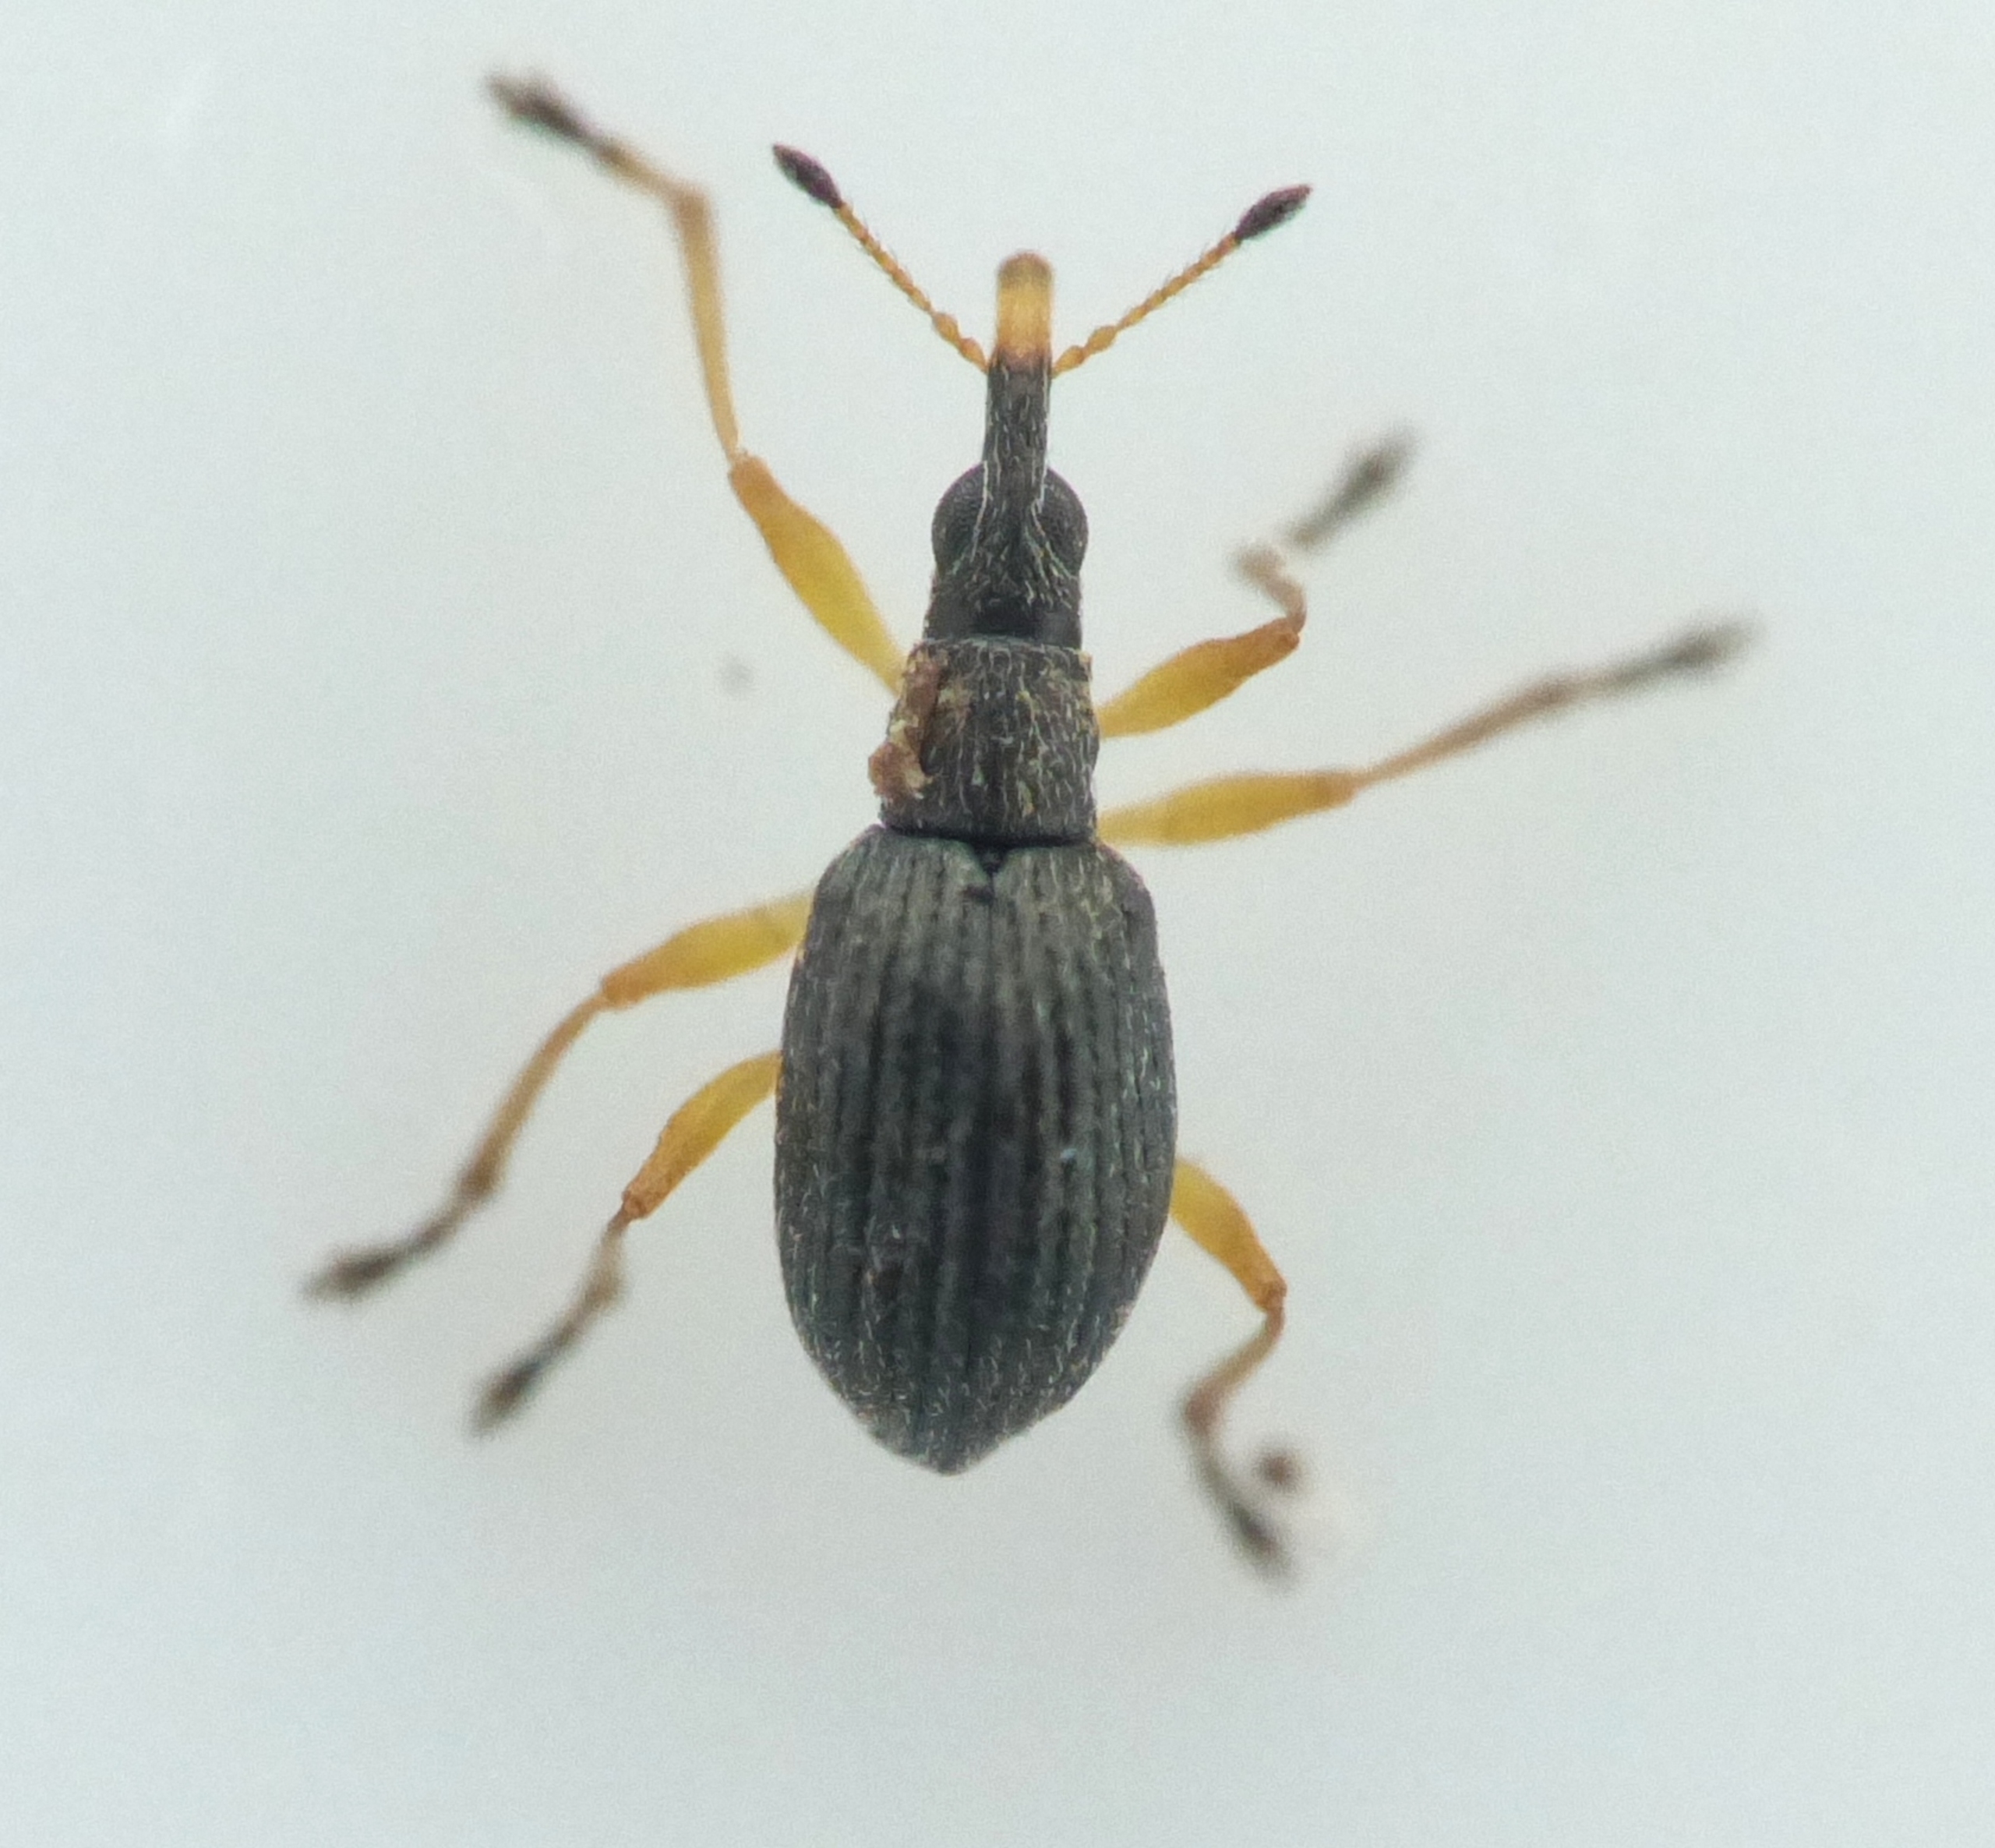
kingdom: Animalia
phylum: Arthropoda
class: Insecta
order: Coleoptera
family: Apionidae
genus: Protapion
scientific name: Protapion nigritarse
